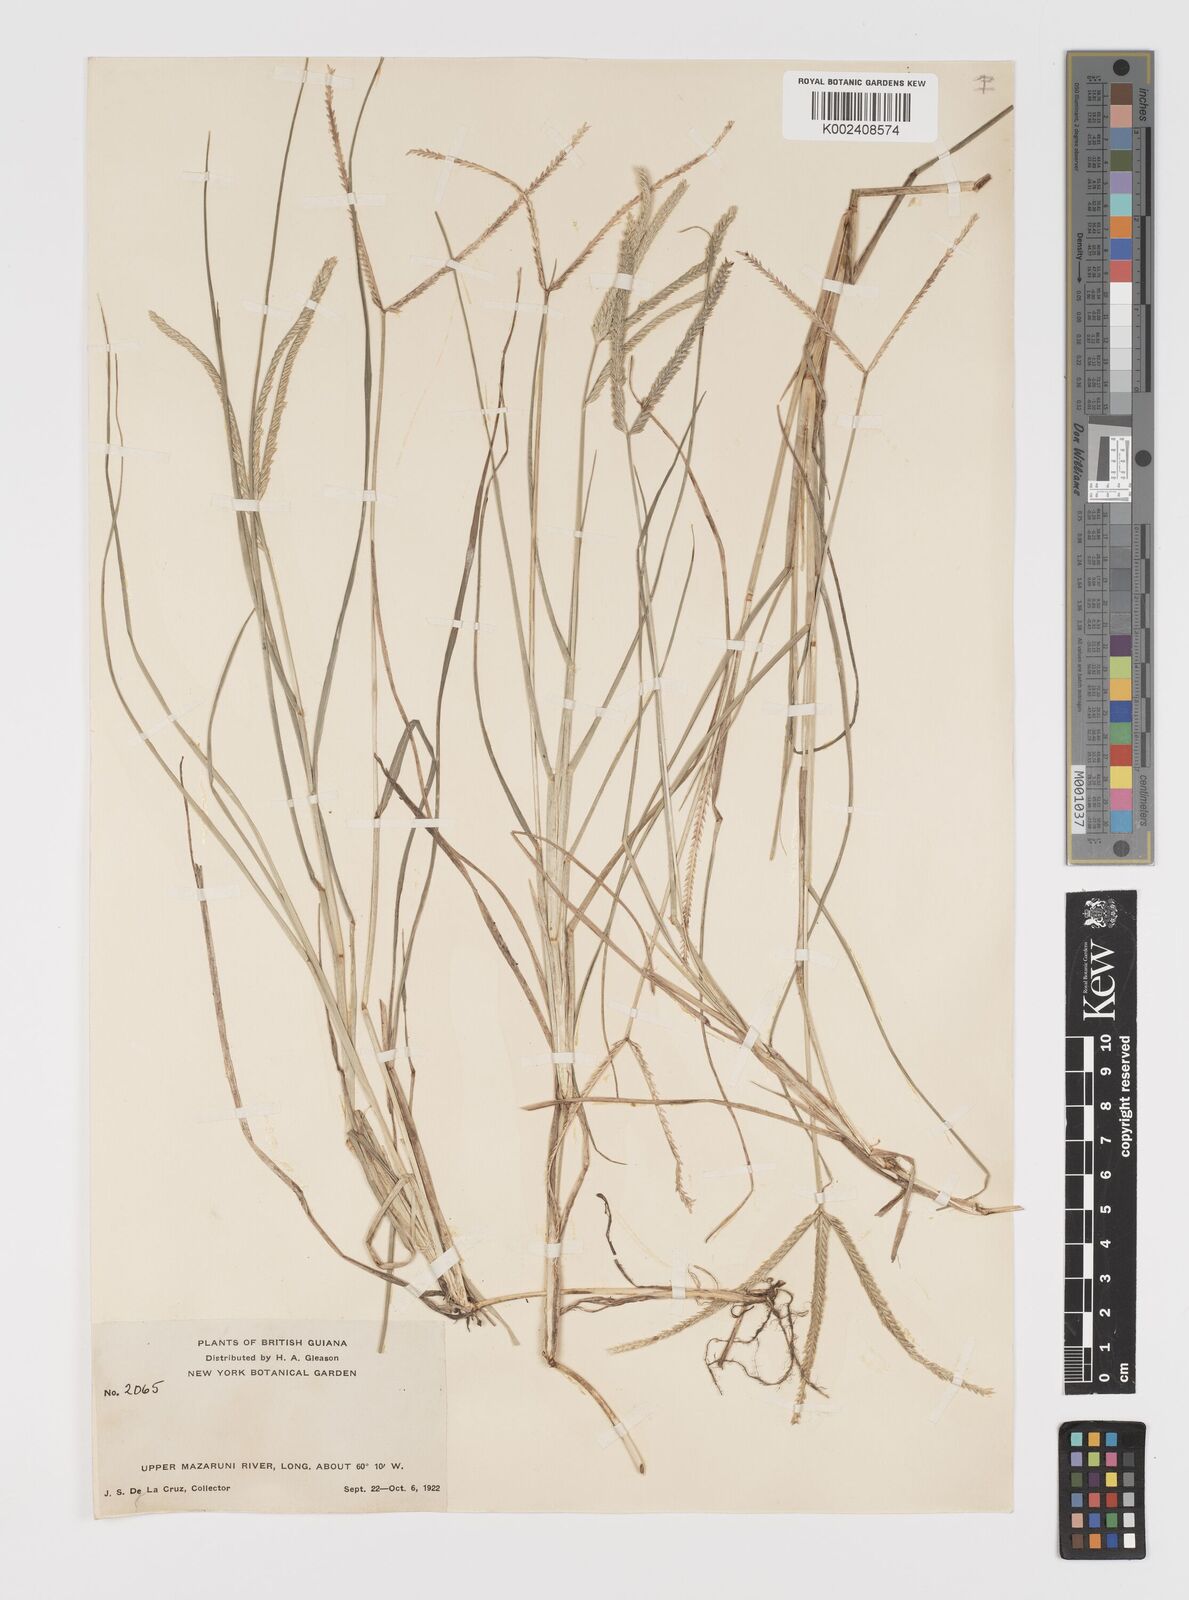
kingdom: Plantae
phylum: Tracheophyta
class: Liliopsida
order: Poales
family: Poaceae
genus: Eleusine
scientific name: Eleusine indica
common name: Yard-grass
